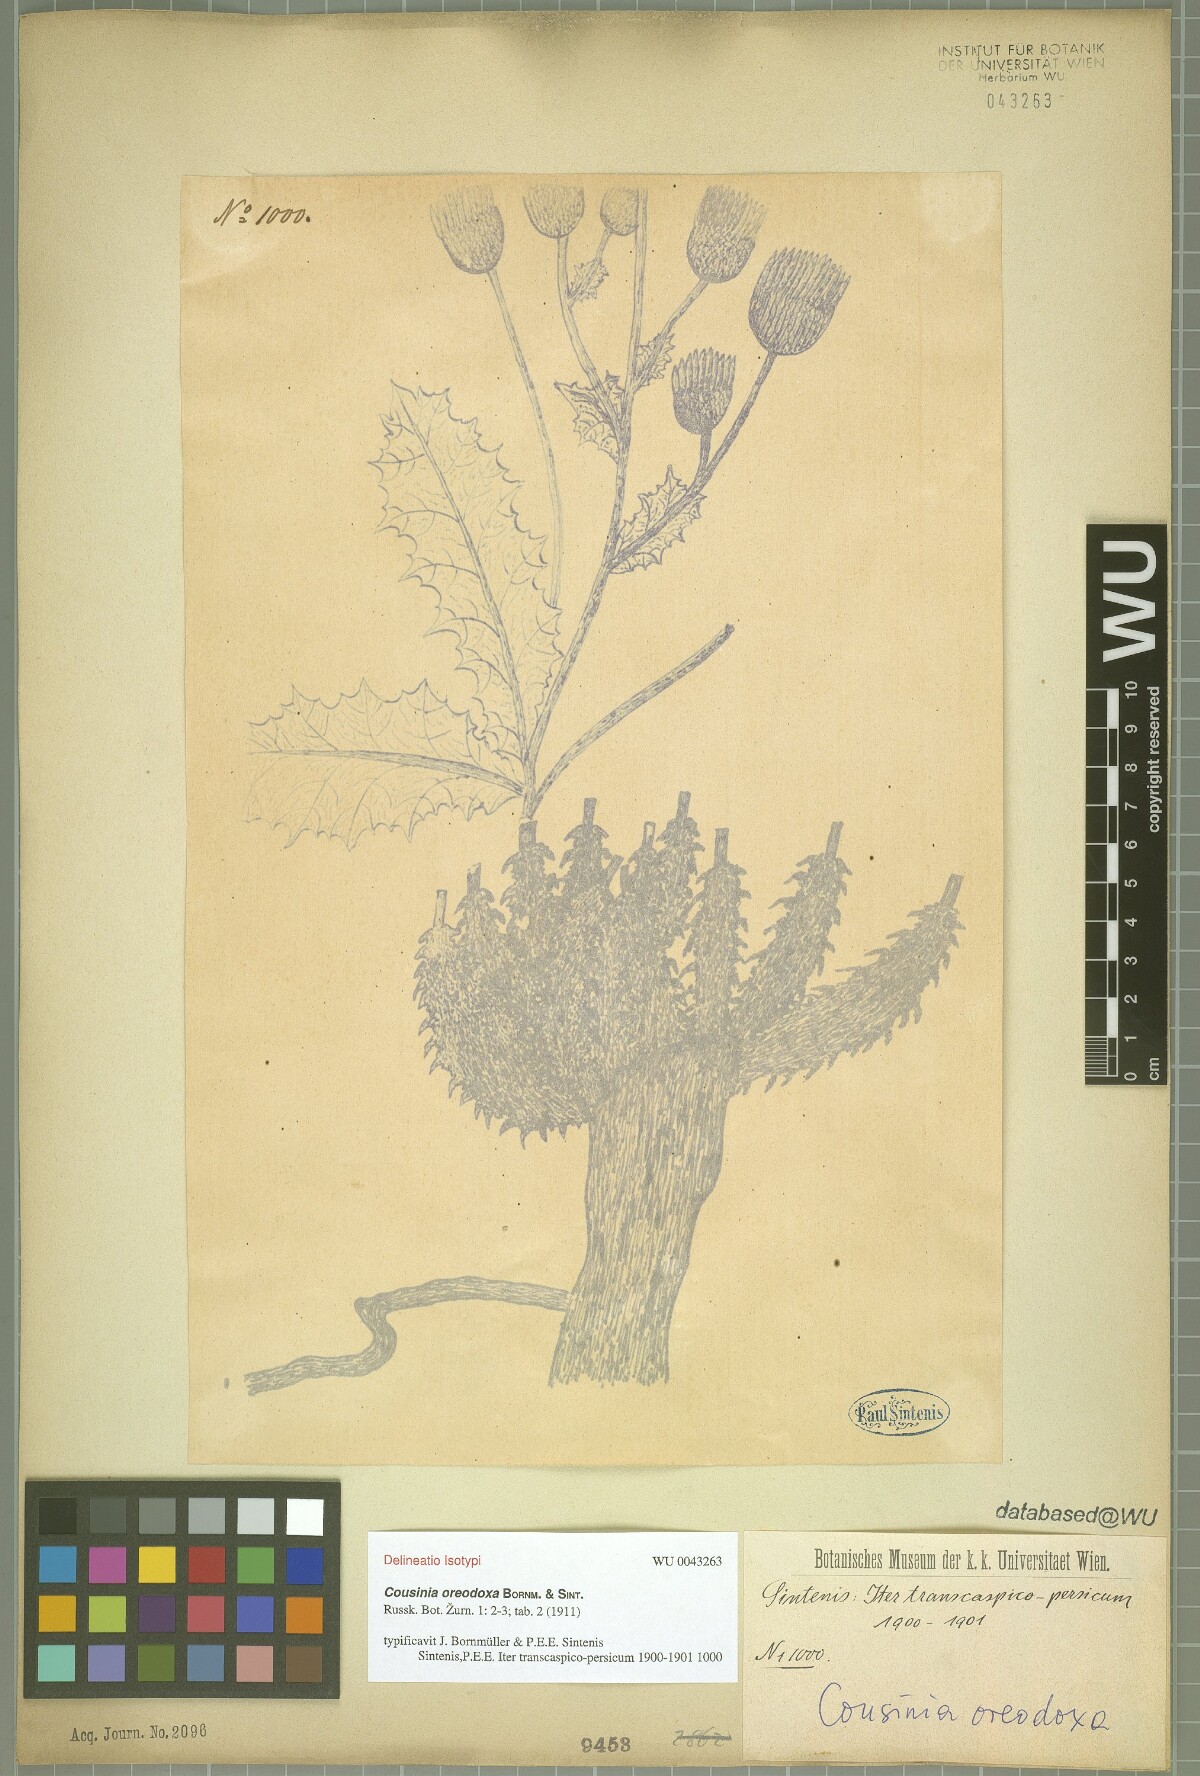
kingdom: Plantae
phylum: Tracheophyta
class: Magnoliopsida
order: Asterales
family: Asteraceae
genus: Cousinia
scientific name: Cousinia oreodoxa
